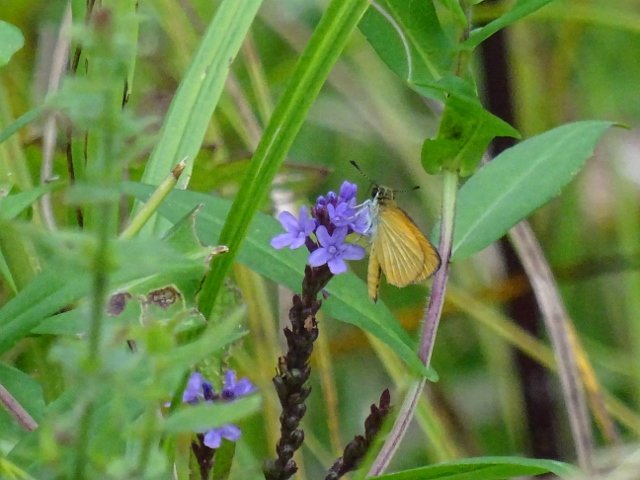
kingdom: Animalia
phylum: Arthropoda
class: Insecta
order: Lepidoptera
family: Hesperiidae
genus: Ancyloxypha
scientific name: Ancyloxypha numitor
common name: Least Skipper
